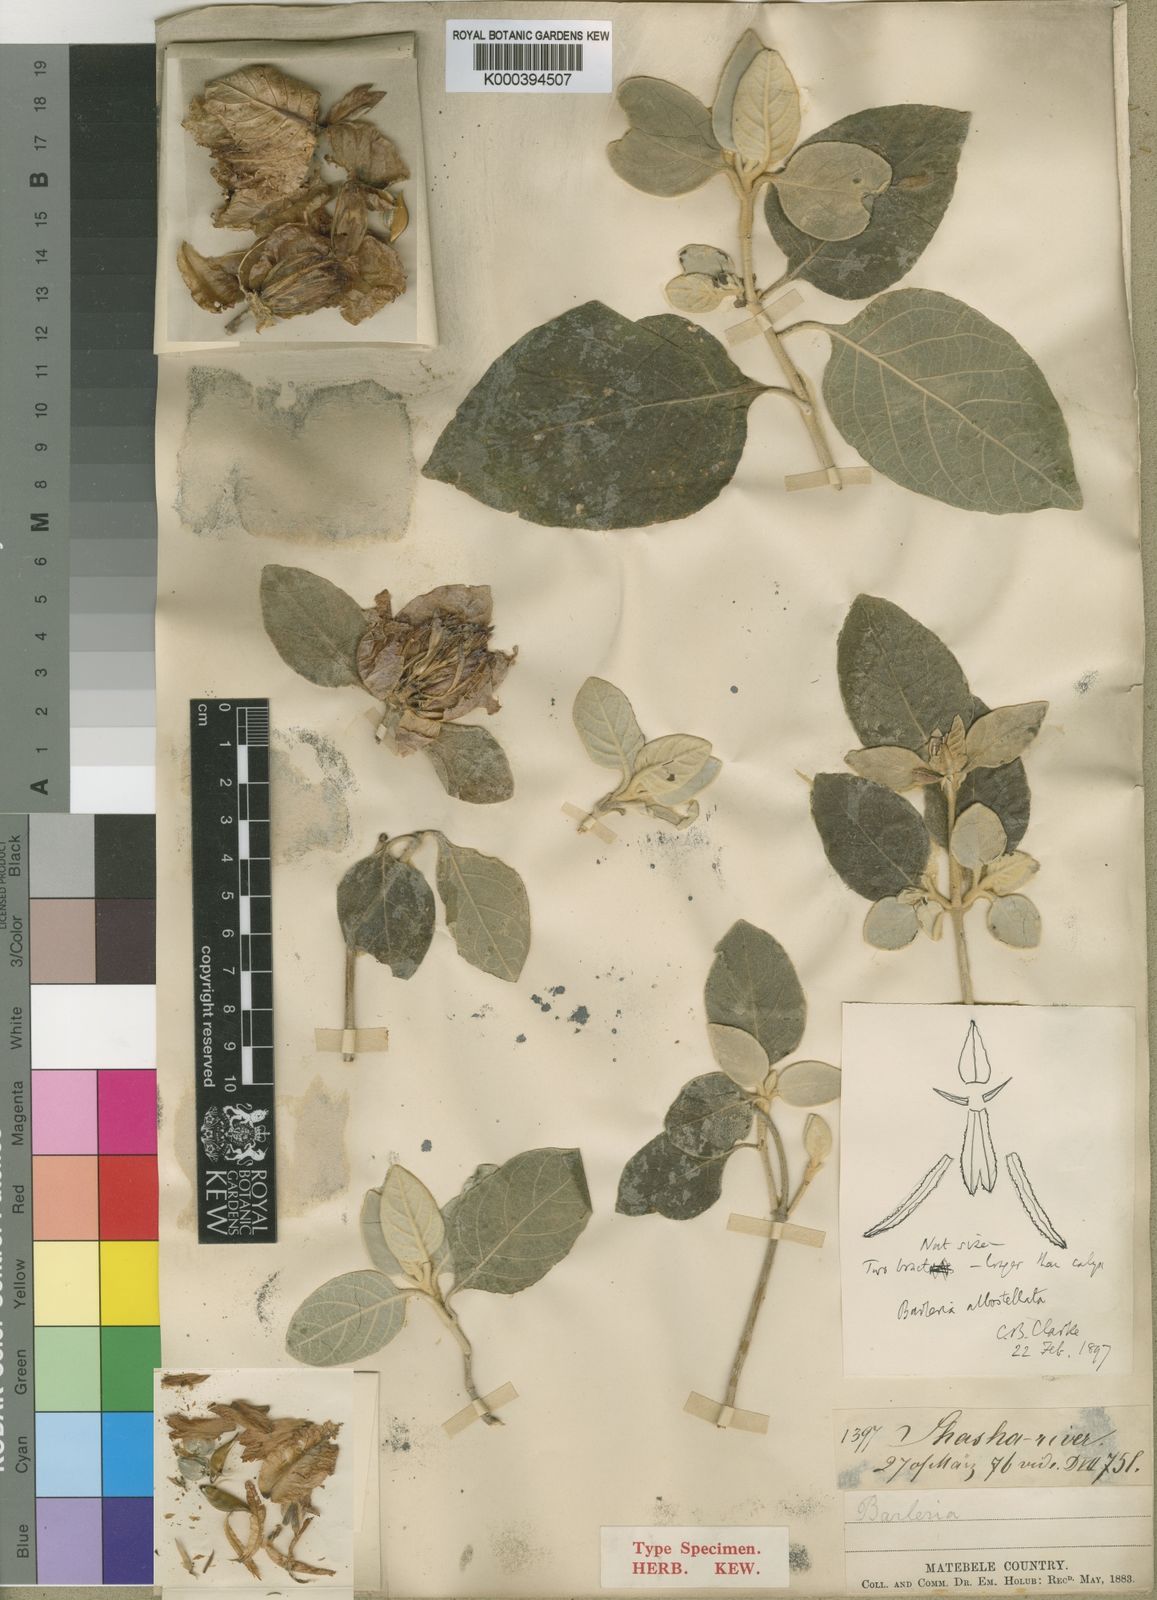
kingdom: Plantae
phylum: Tracheophyta
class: Magnoliopsida
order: Lamiales
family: Acanthaceae
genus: Barleria
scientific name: Barleria albostellata
